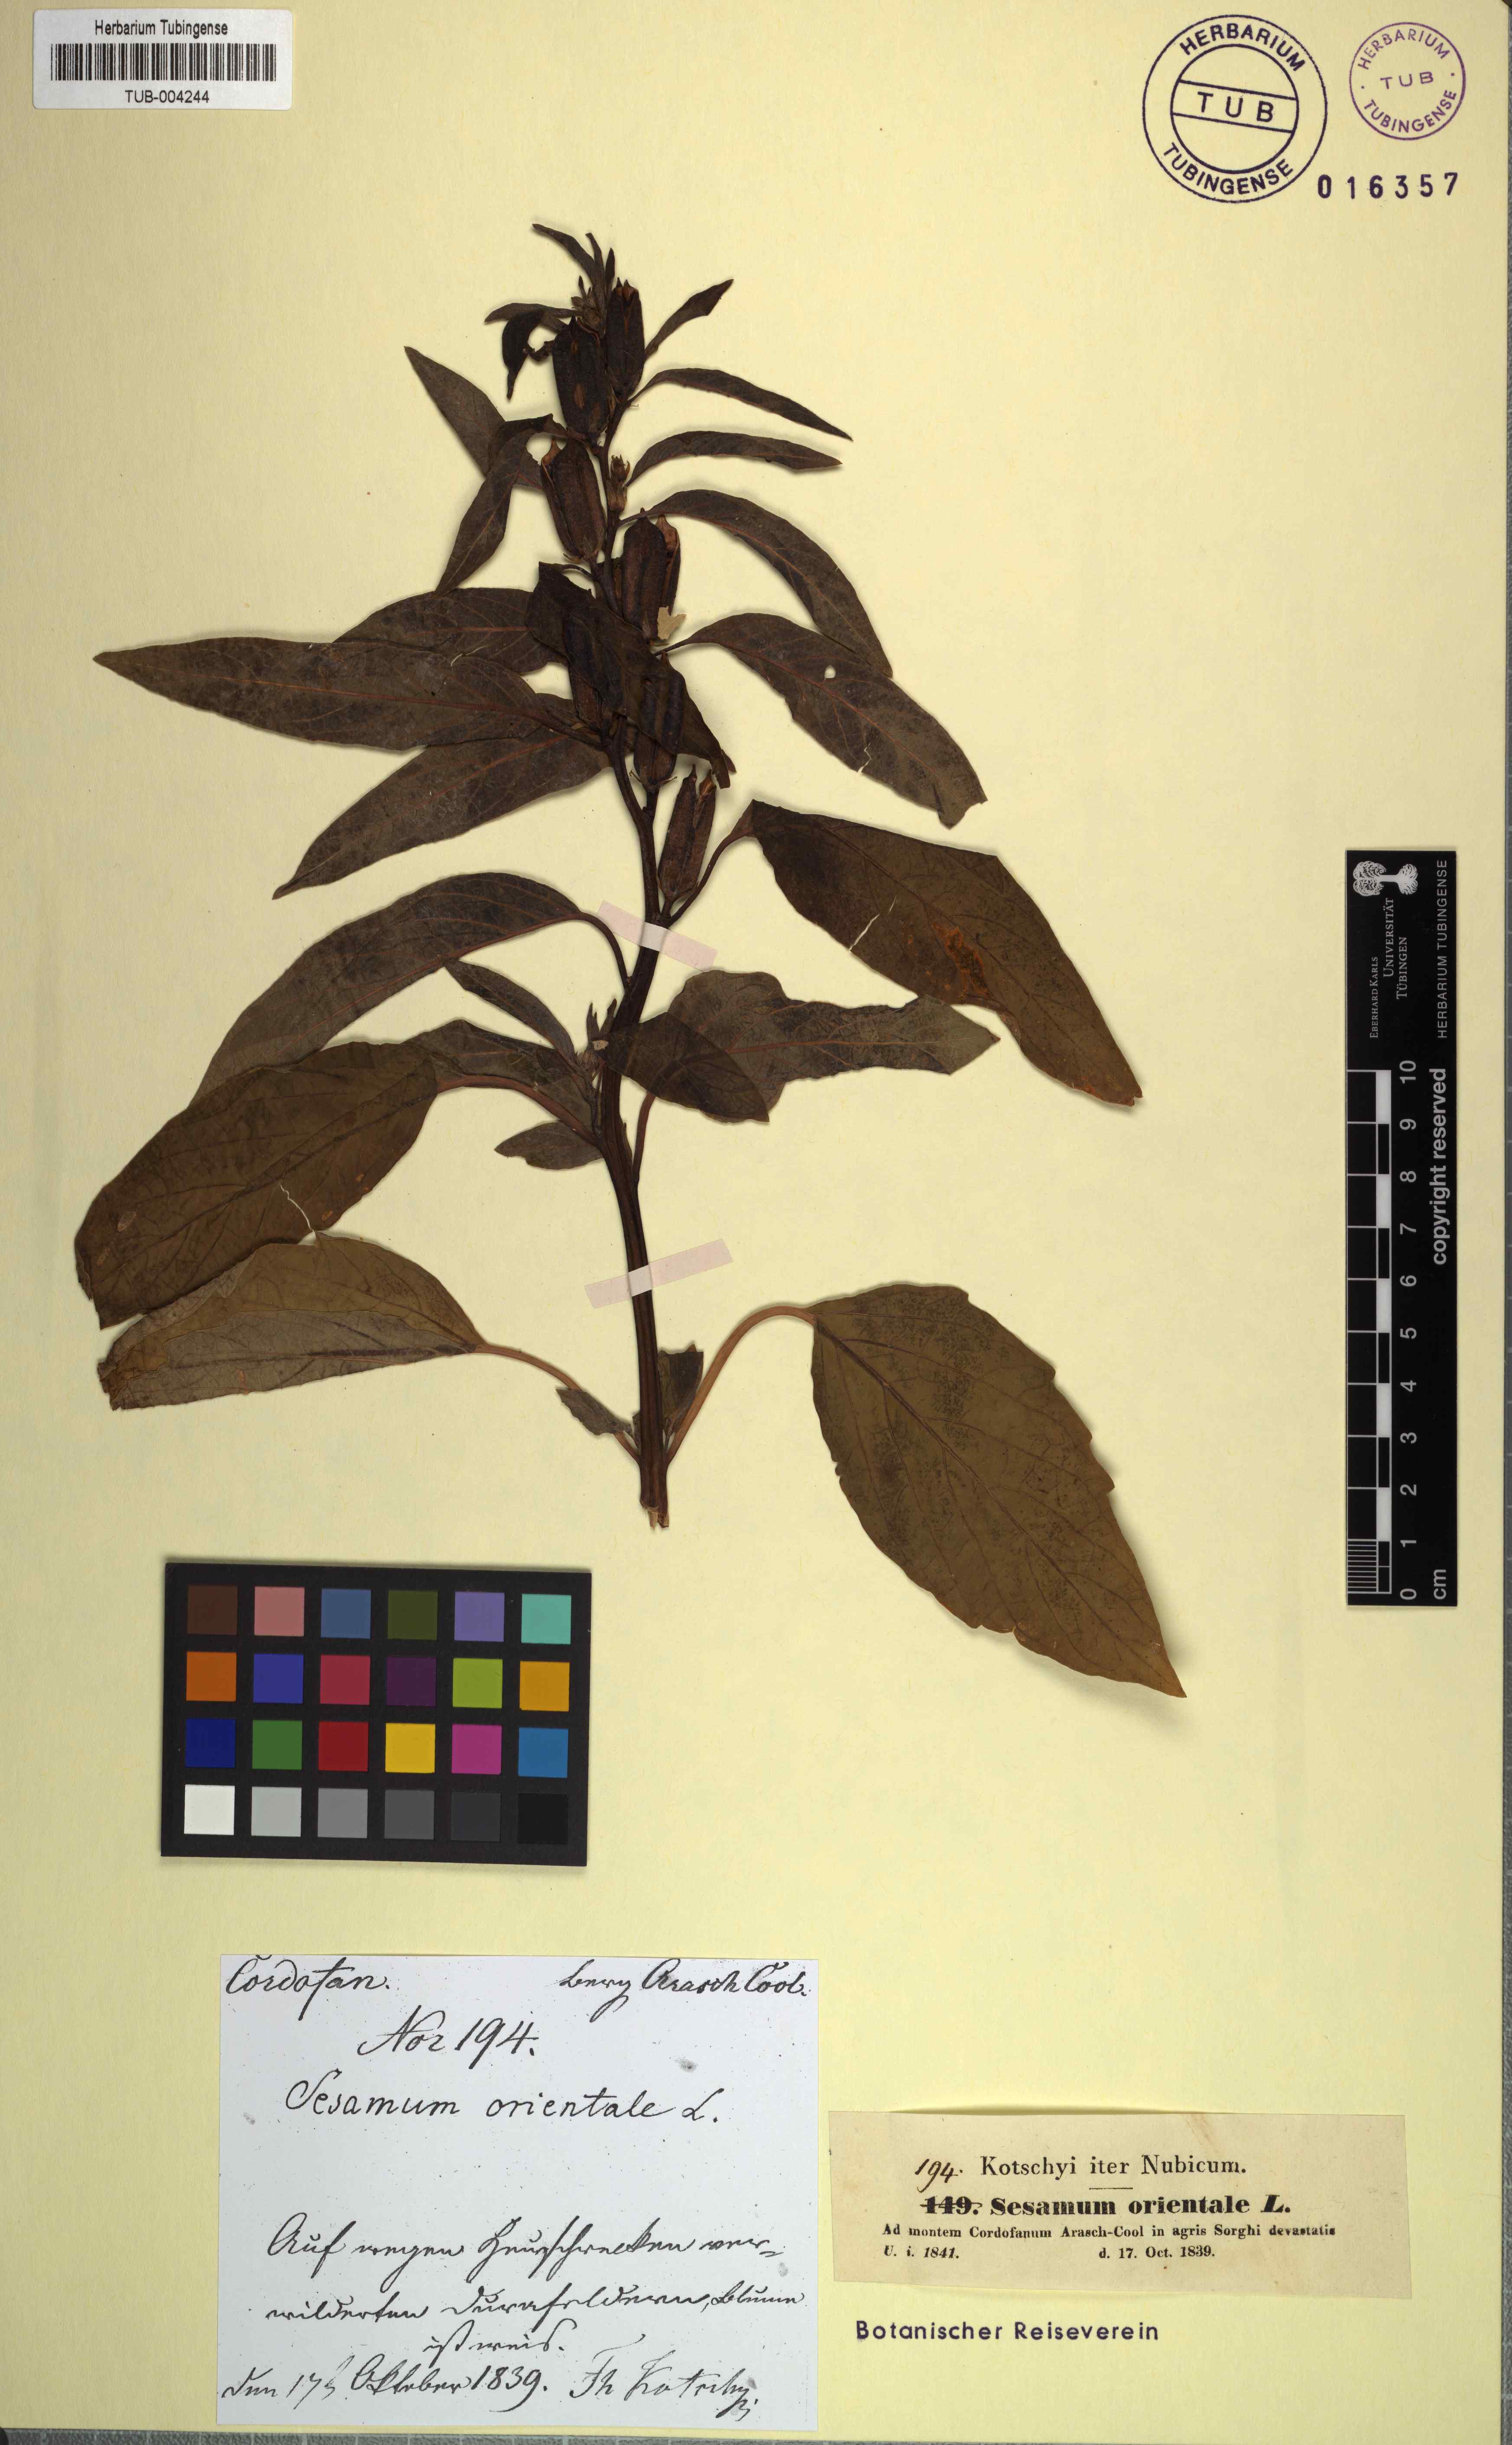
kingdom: Plantae
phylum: Tracheophyta
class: Magnoliopsida
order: Lamiales
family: Pedaliaceae
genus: Sesamum
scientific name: Sesamum indicum
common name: Sesame
